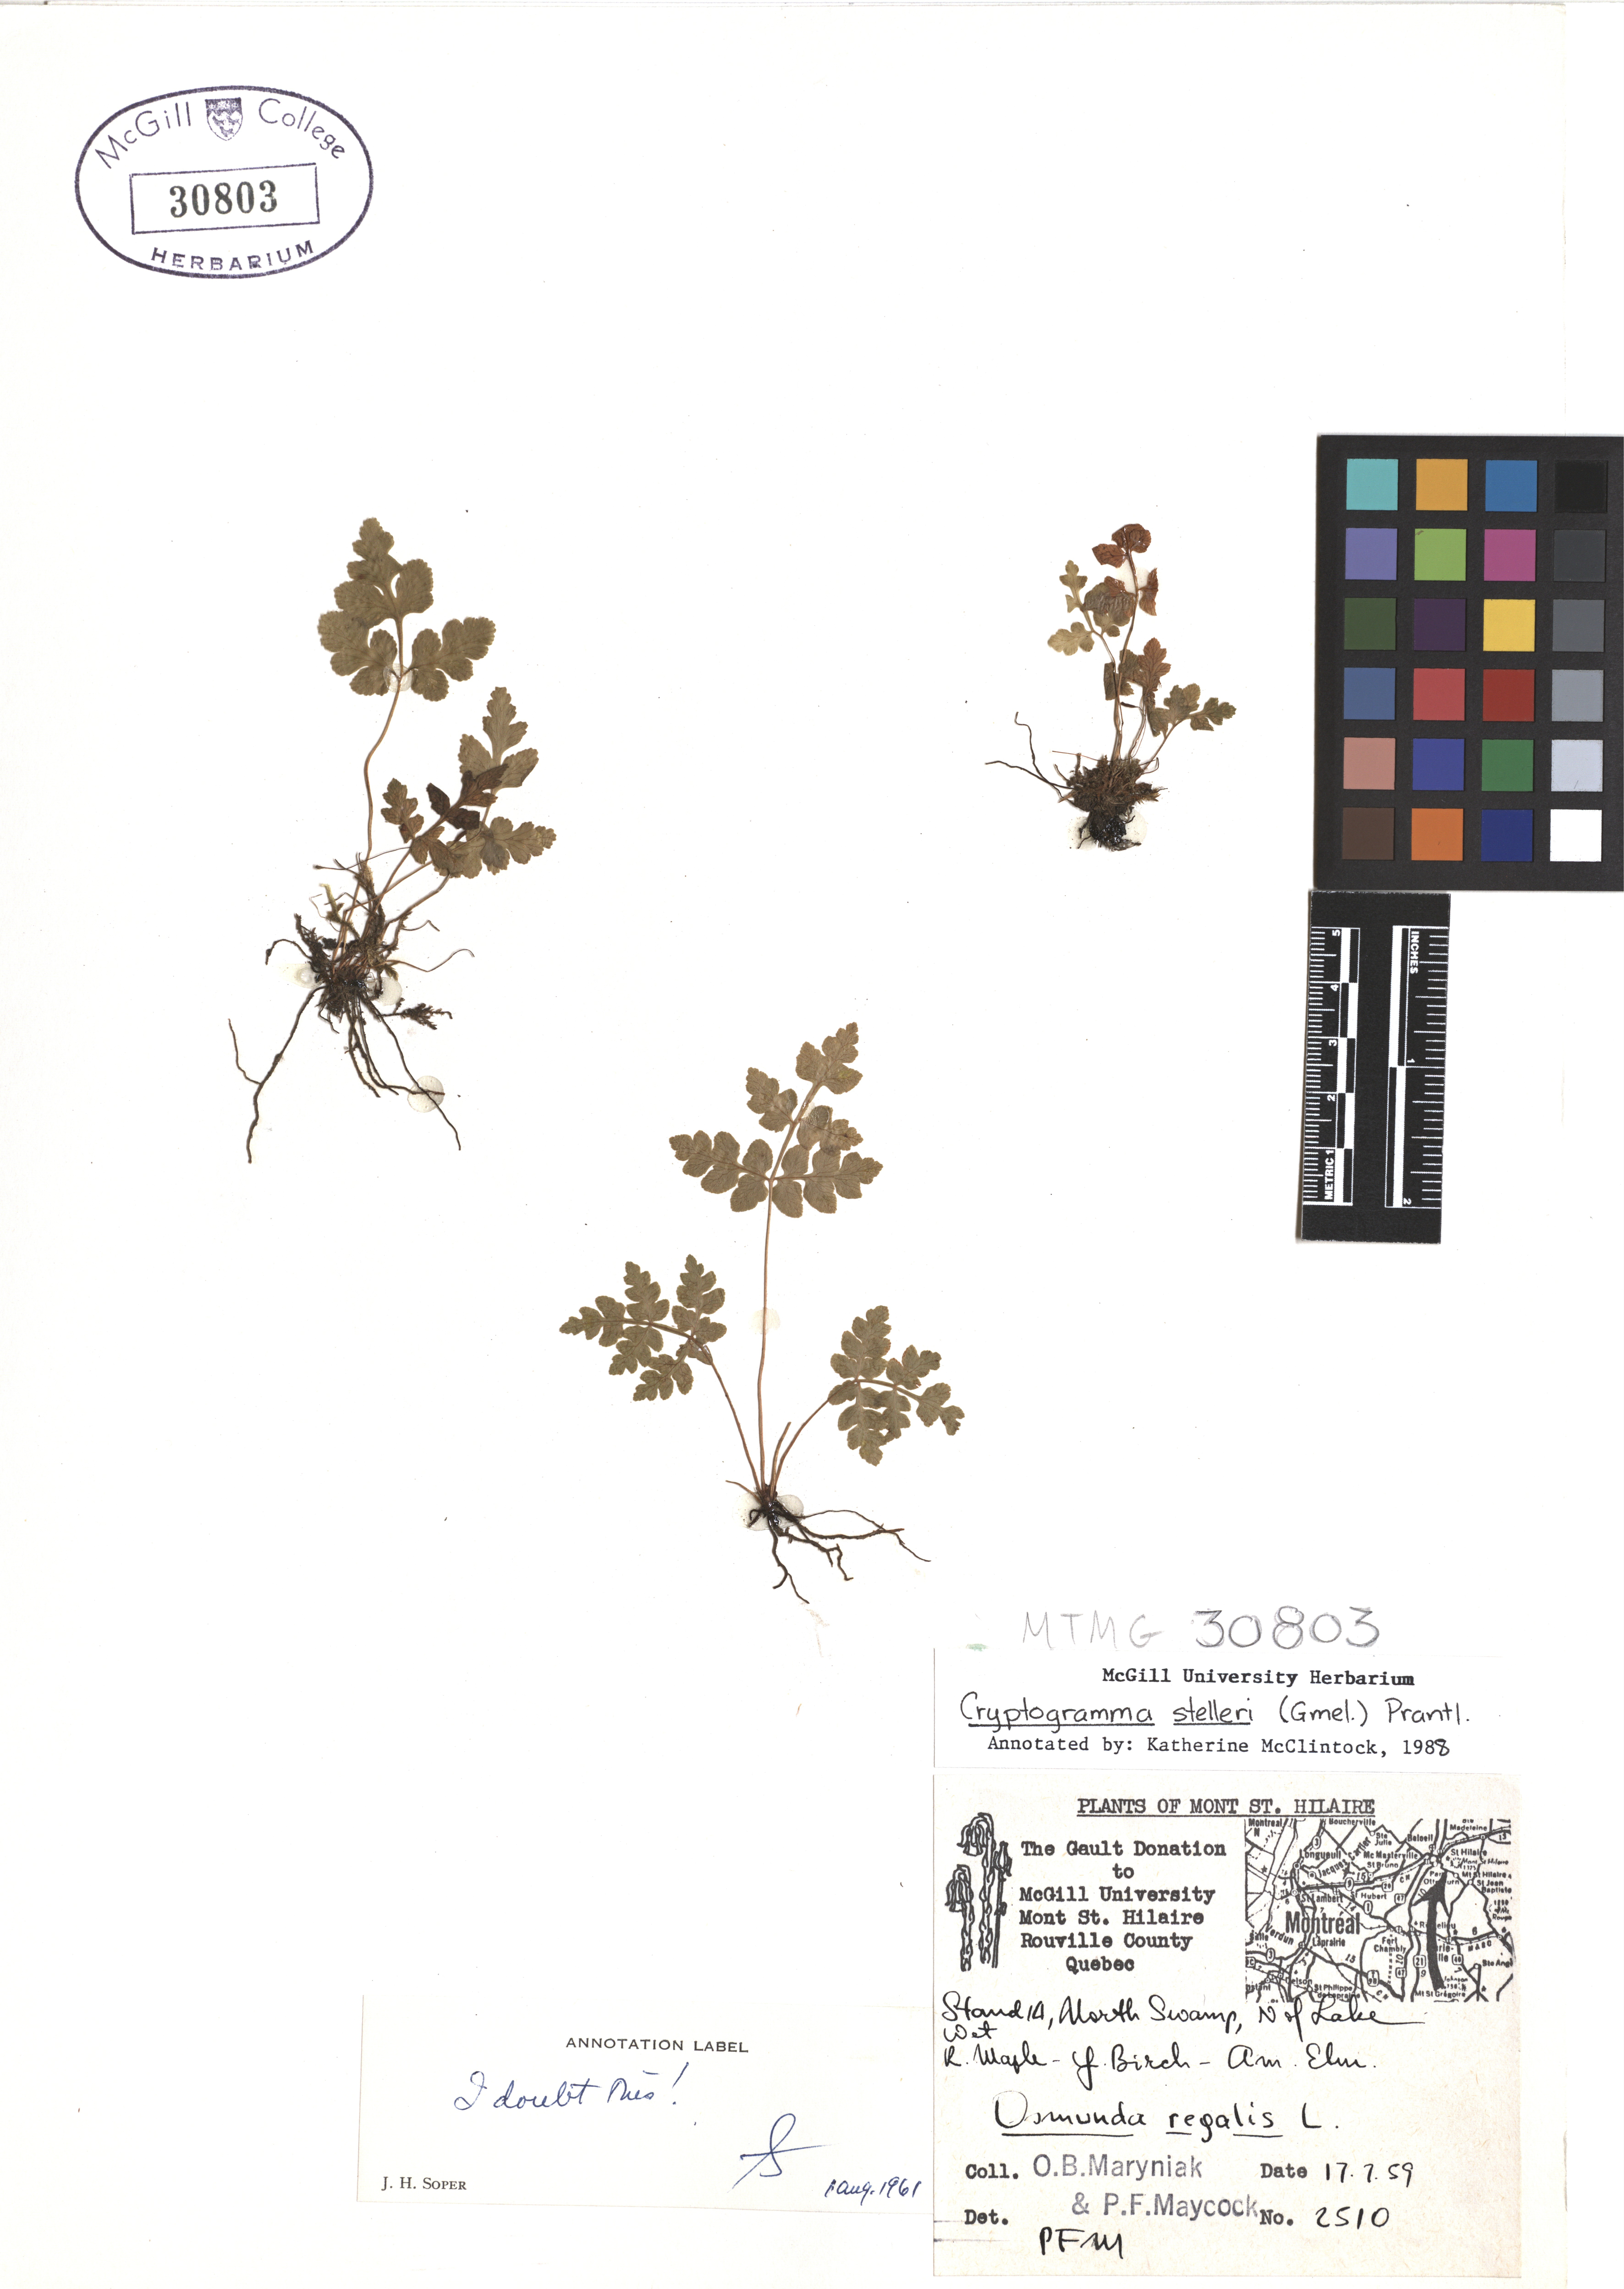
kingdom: Plantae
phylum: Tracheophyta
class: Polypodiopsida
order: Osmundales
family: Osmundaceae
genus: Osmunda
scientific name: Osmunda regalis
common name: Royal fern
